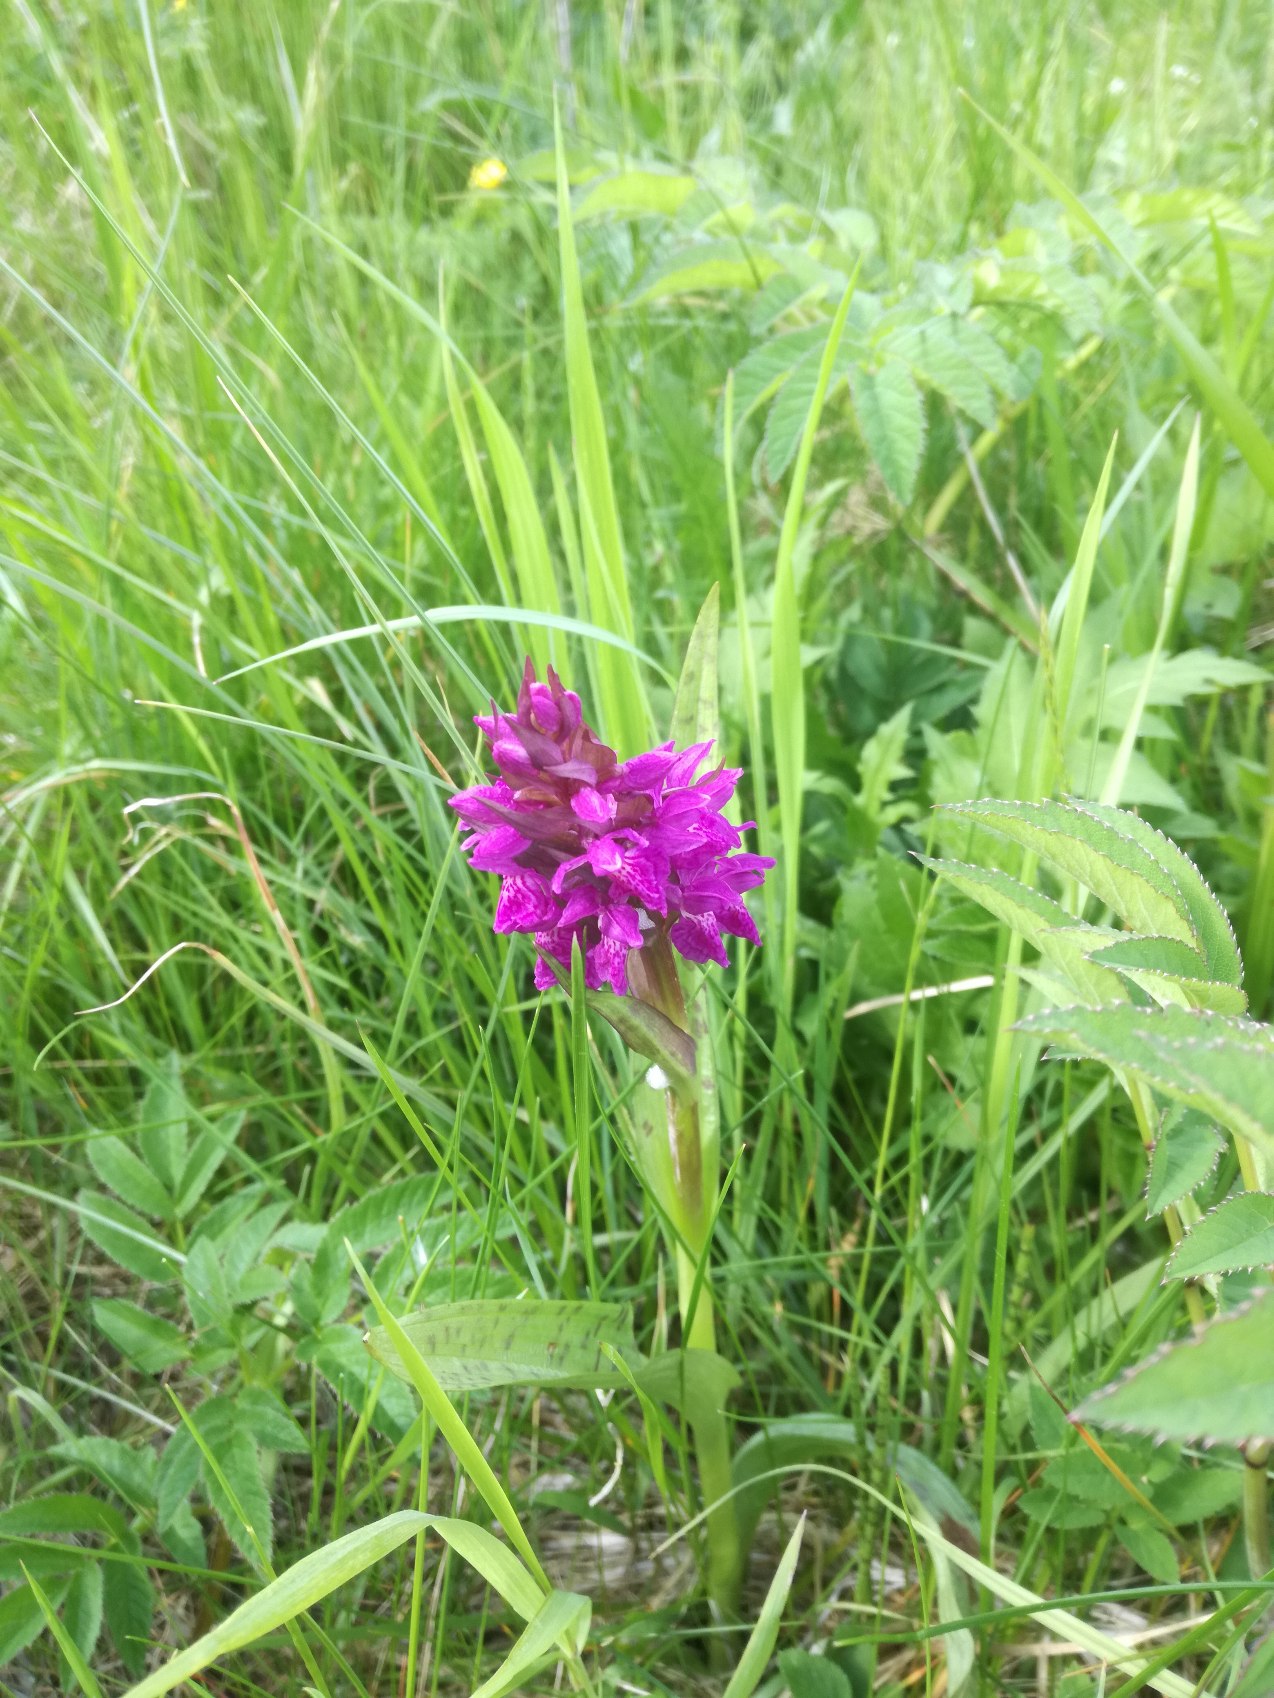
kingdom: Plantae
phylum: Tracheophyta
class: Liliopsida
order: Asparagales
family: Orchidaceae
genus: Dactylorhiza
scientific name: Dactylorhiza majalis
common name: Maj-gøgeurt
